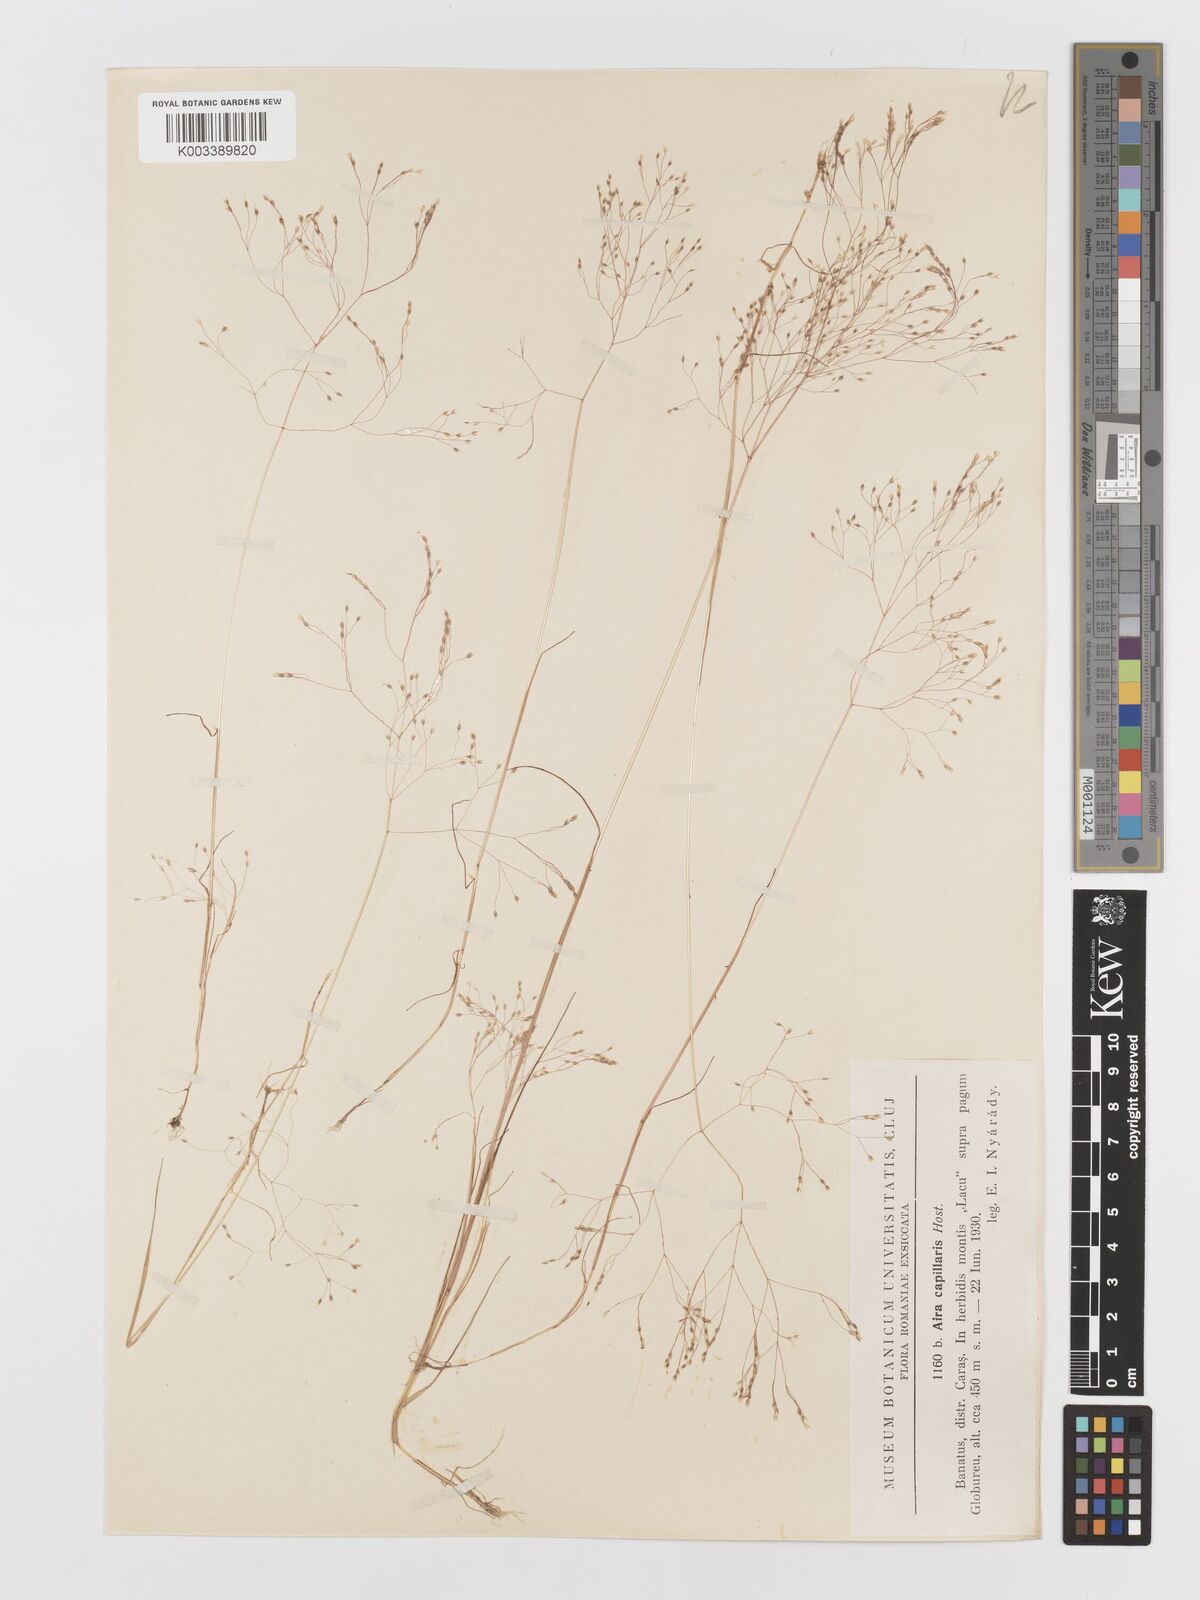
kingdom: Plantae
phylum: Tracheophyta
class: Liliopsida
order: Poales
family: Poaceae
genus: Aira
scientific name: Aira elegans
